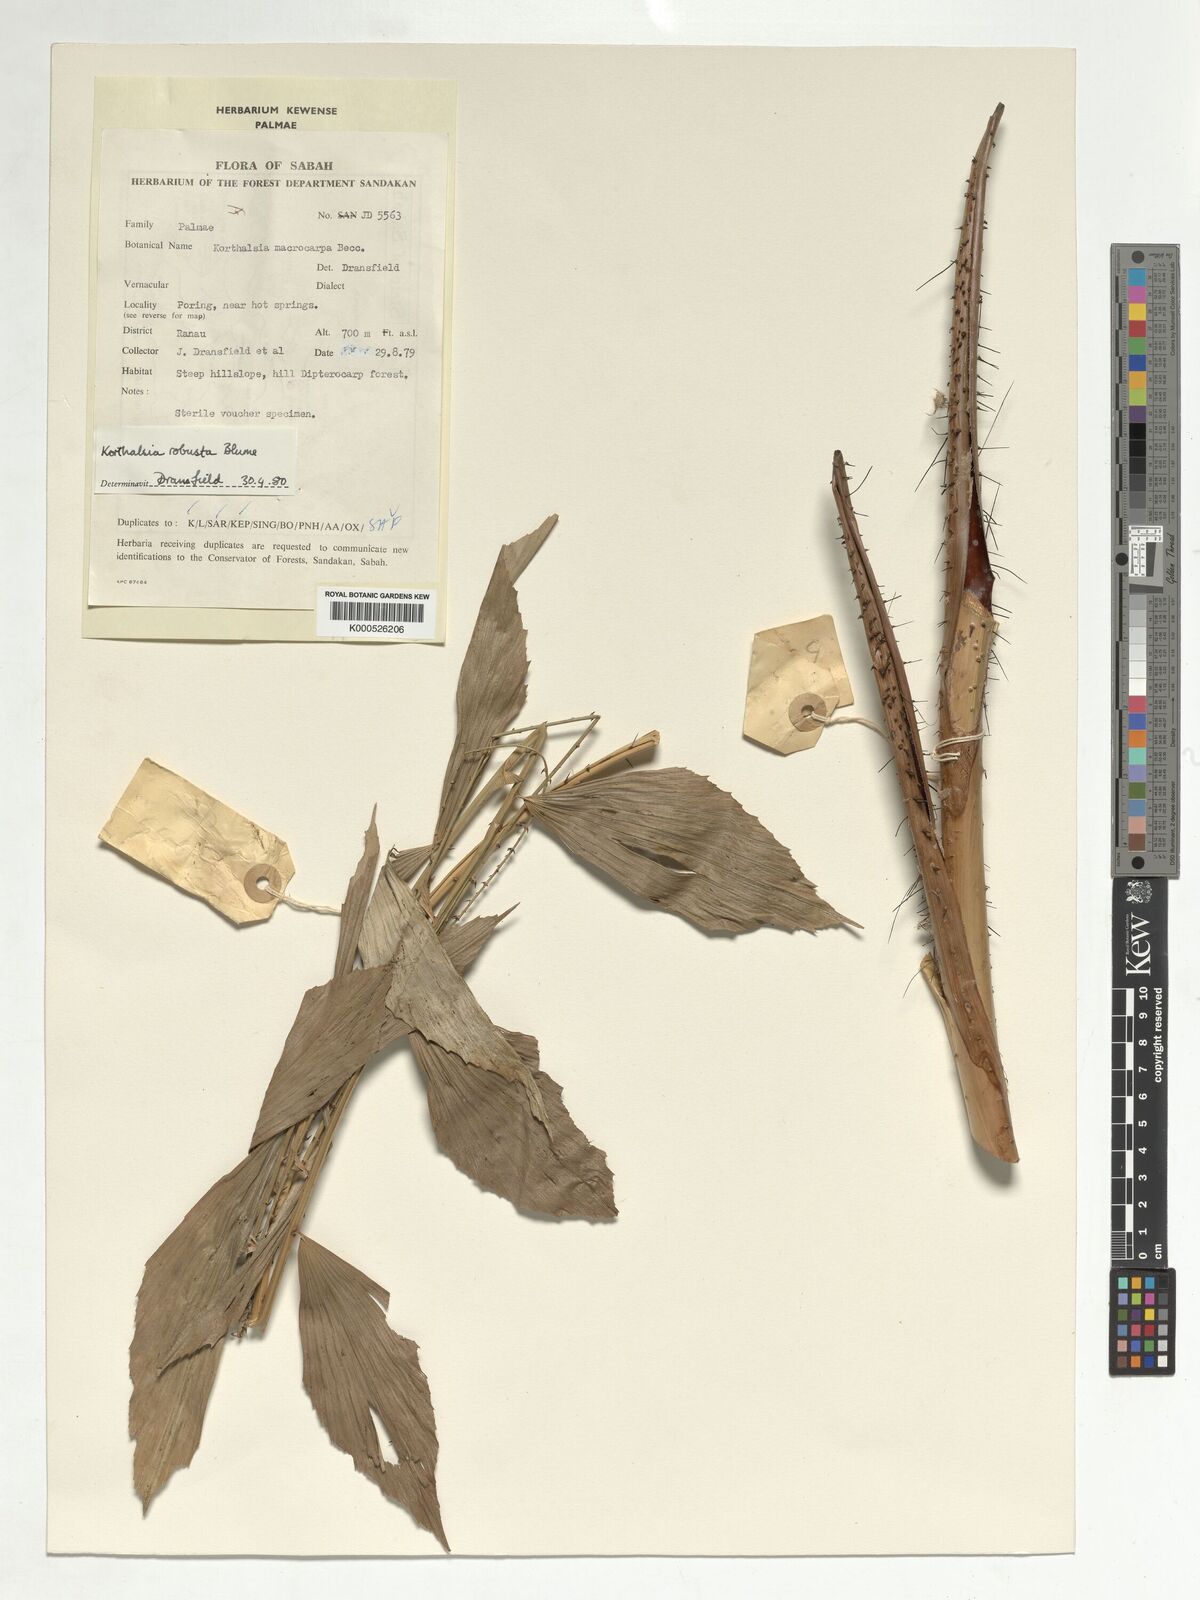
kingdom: Plantae
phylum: Tracheophyta
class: Liliopsida
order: Arecales
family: Arecaceae
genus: Korthalsia
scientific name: Korthalsia robusta
